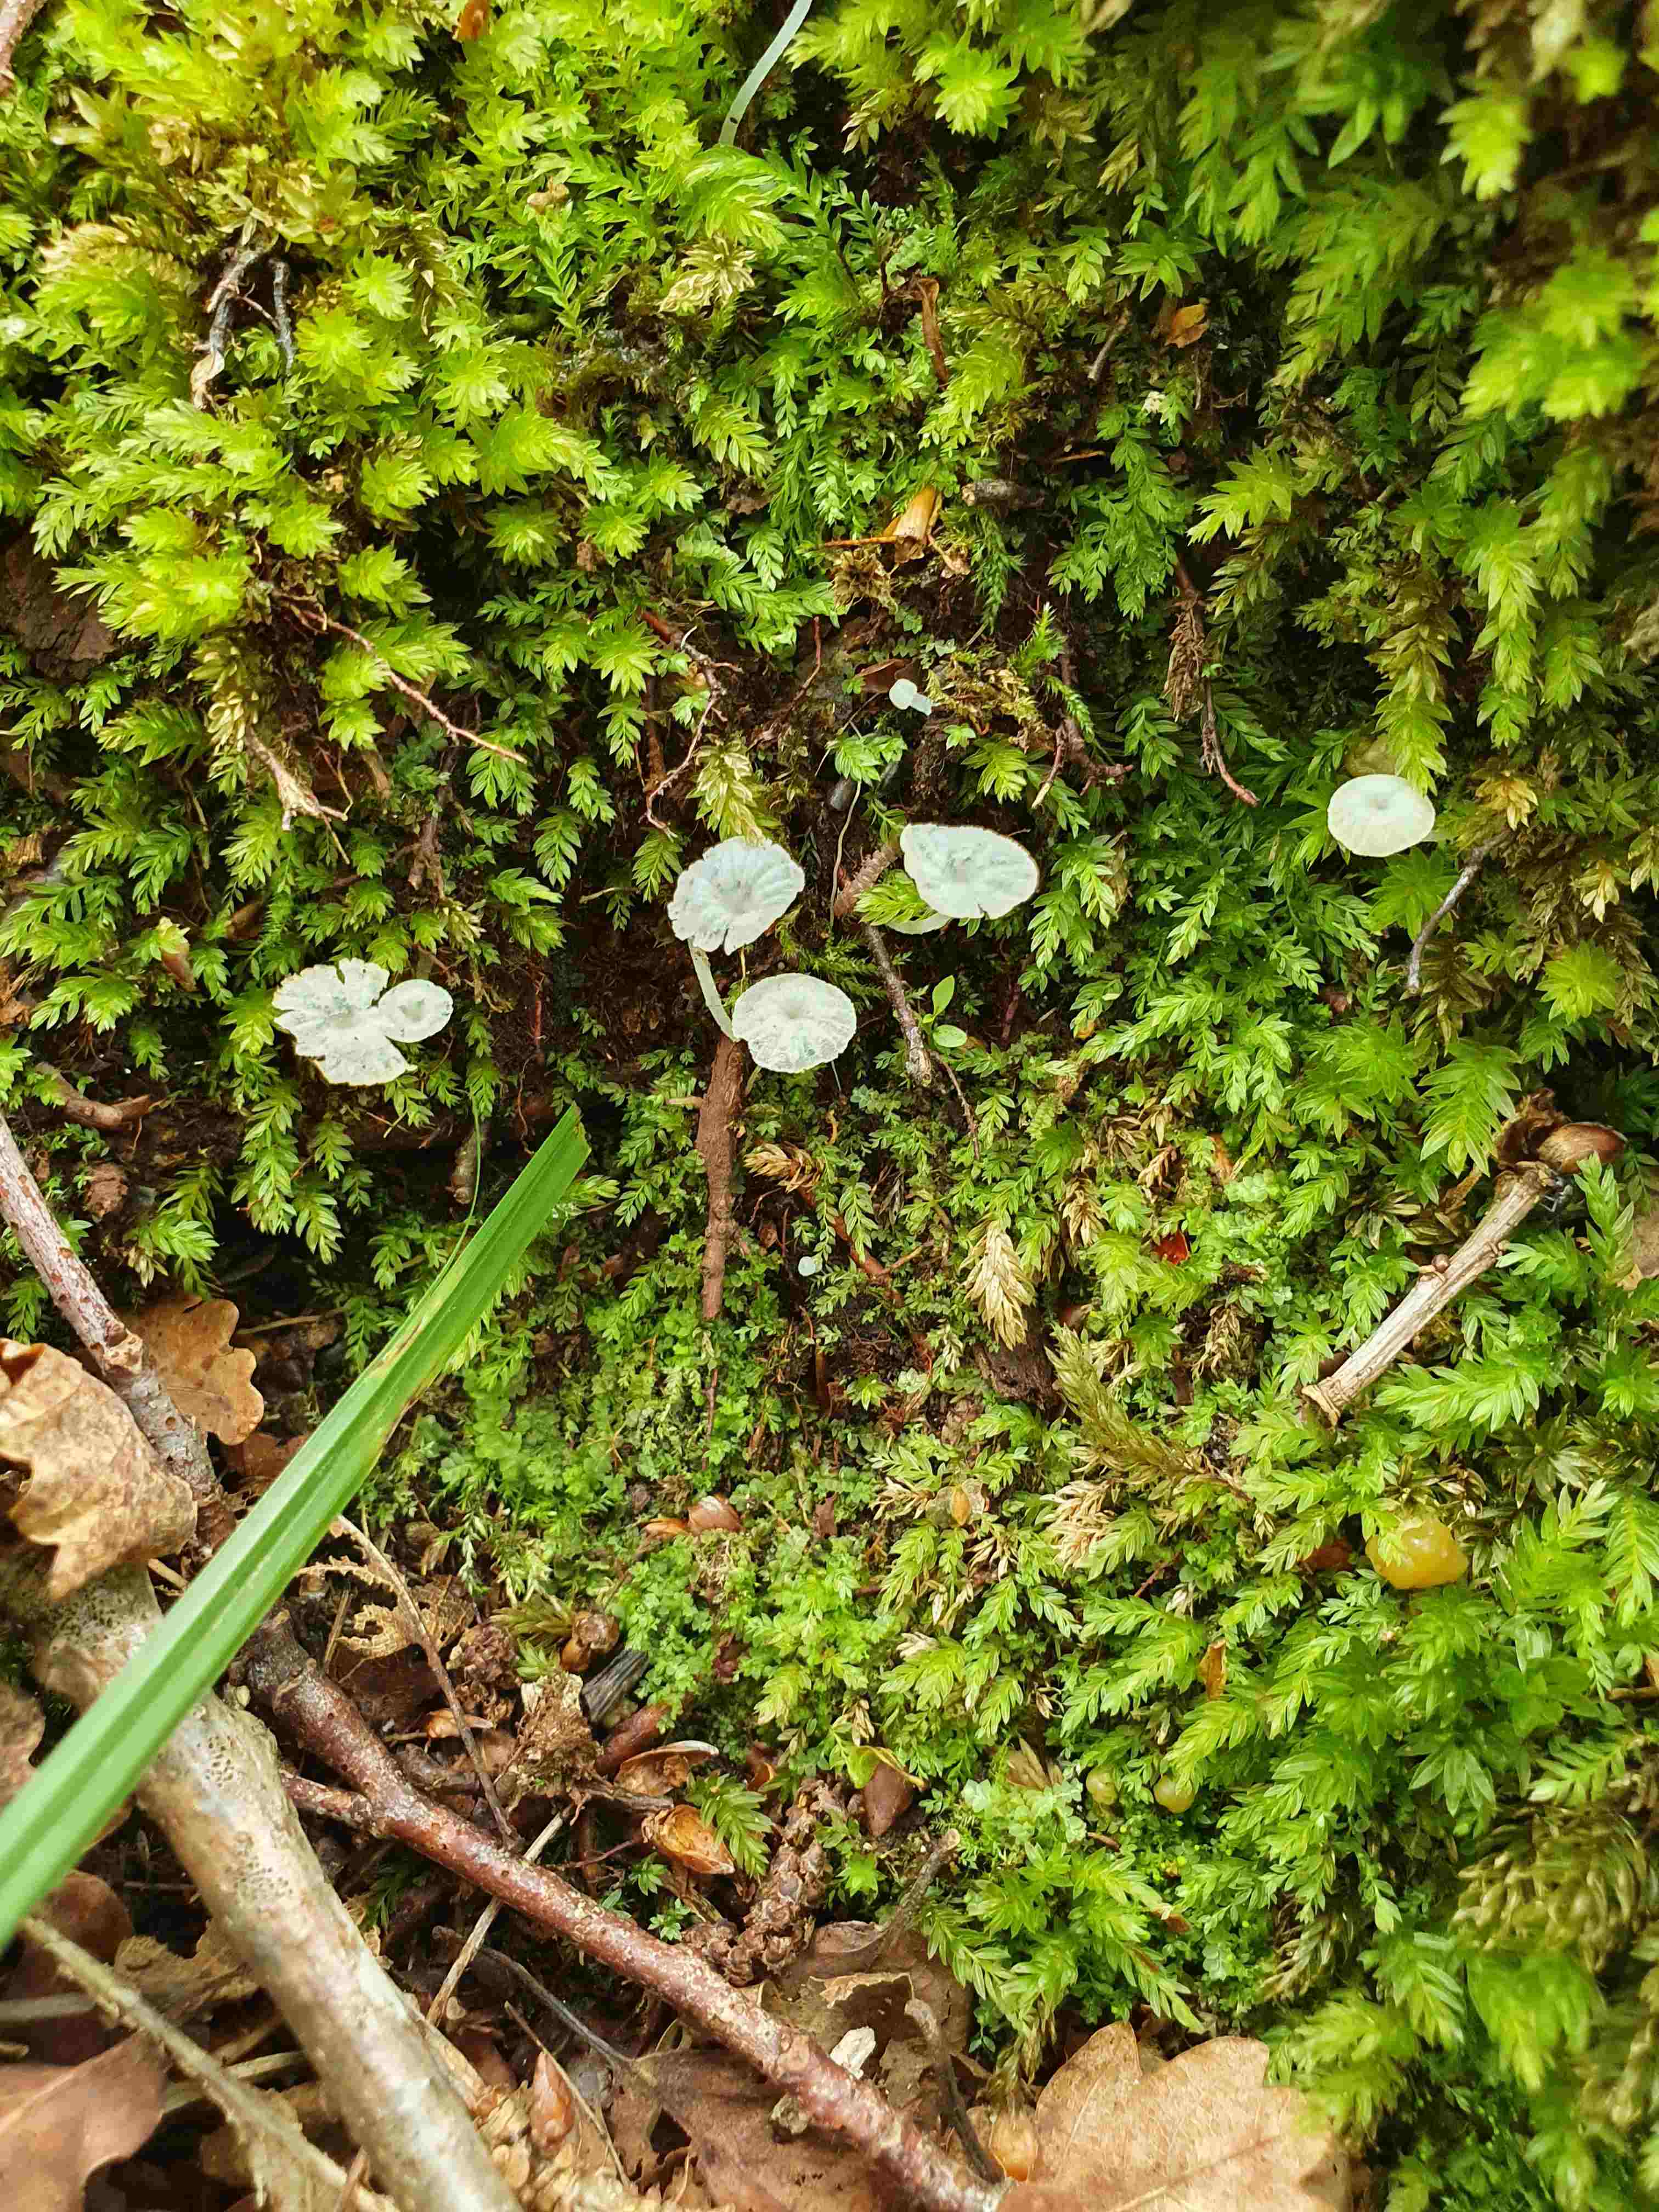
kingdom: Fungi
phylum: Basidiomycota
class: Agaricomycetes
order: Agaricales
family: Tricholomataceae
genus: Delicatula
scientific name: Delicatula integrella
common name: slørhuesvamp
